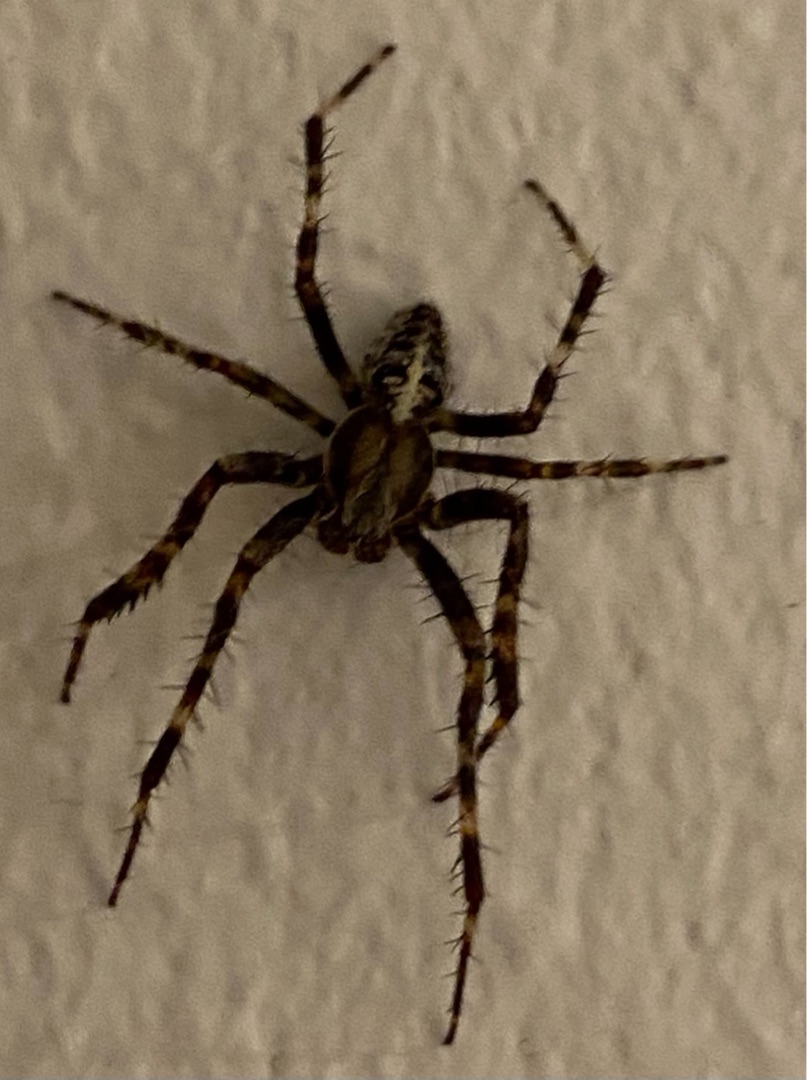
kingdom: Animalia
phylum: Arthropoda
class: Arachnida
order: Araneae
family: Araneidae
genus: Araneus
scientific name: Araneus diadematus
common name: Korsedderkop
